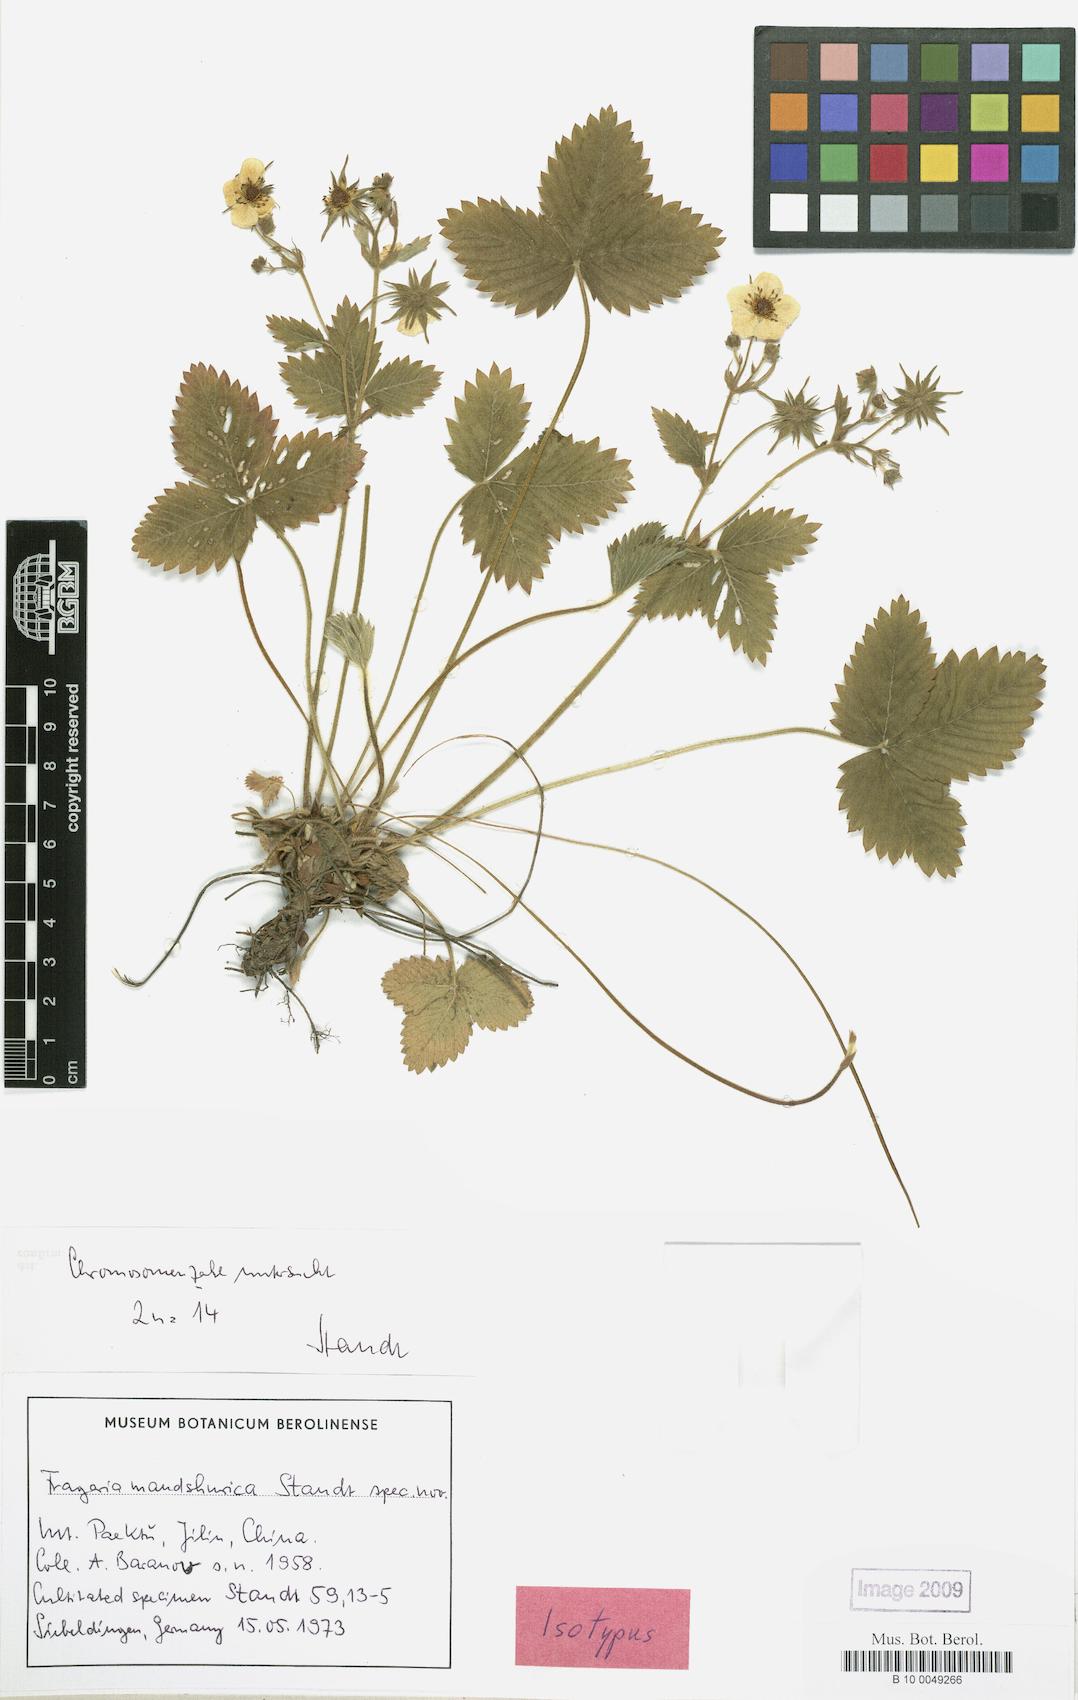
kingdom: Plantae
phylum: Tracheophyta
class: Magnoliopsida
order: Rosales
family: Rosaceae
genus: Fragaria
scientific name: Fragaria mandshurica
